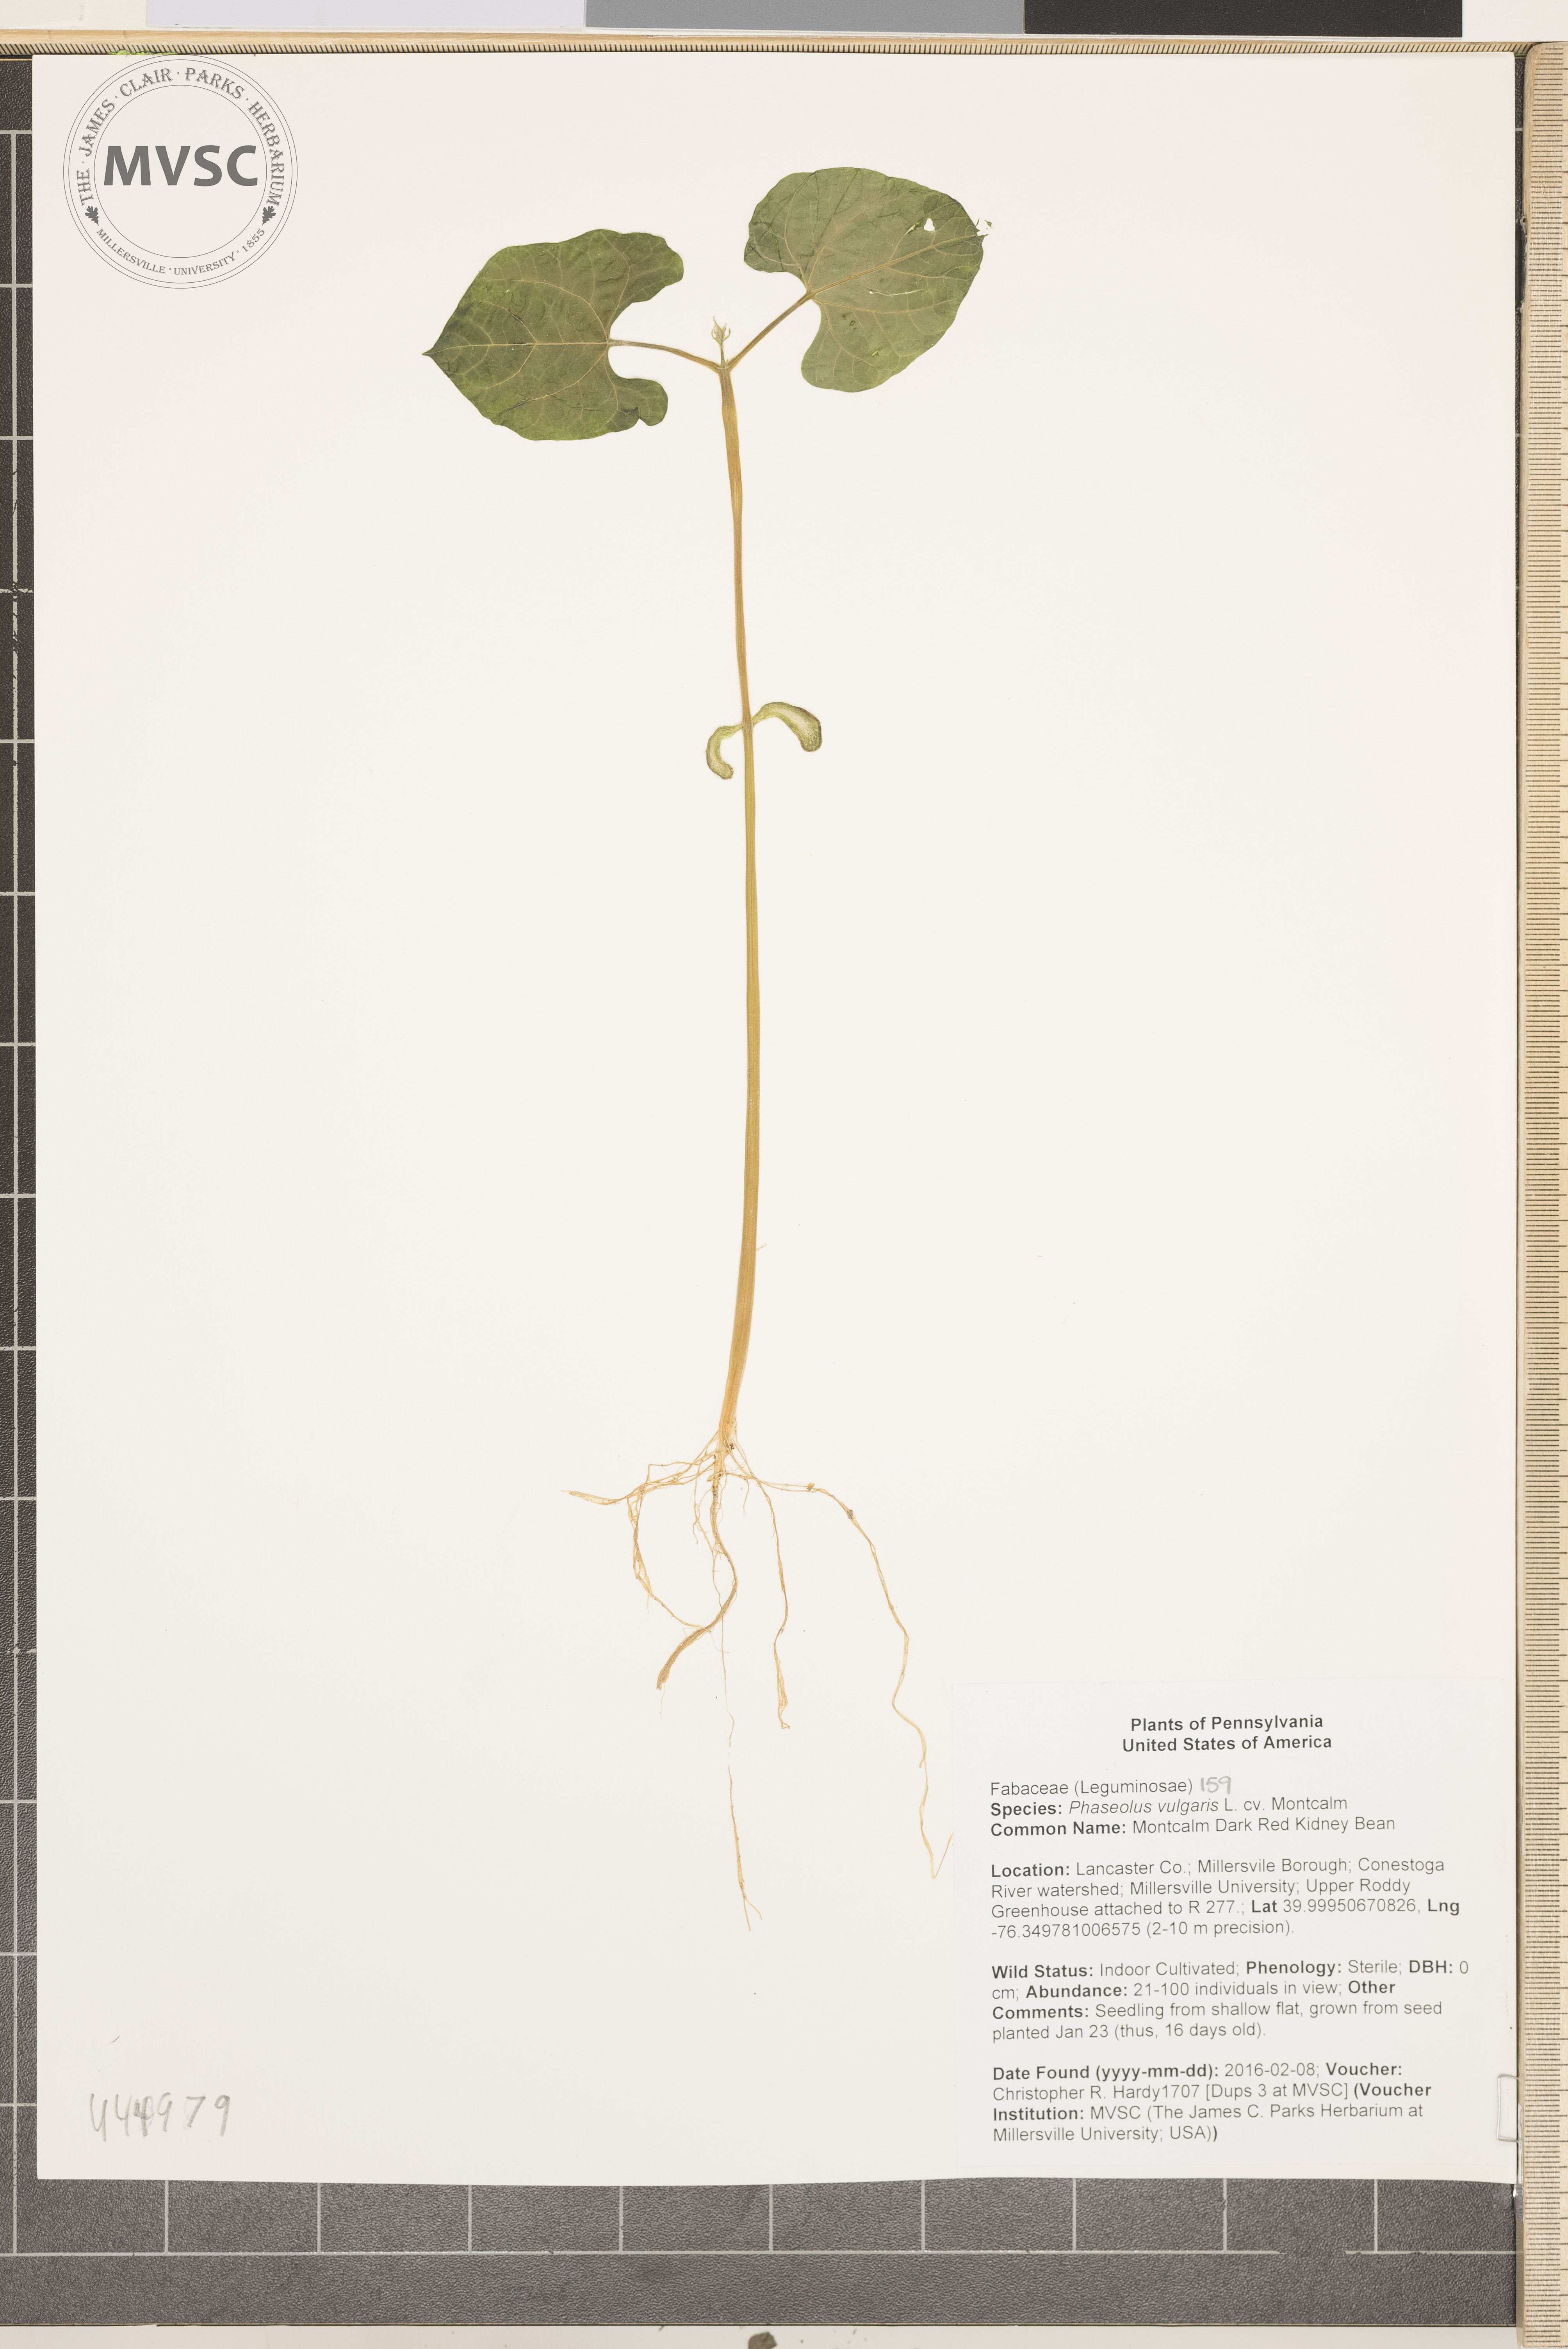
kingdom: Plantae
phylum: Tracheophyta
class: Magnoliopsida
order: Fabales
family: Fabaceae
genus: Phaseolus
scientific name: Phaseolus vulgaris
